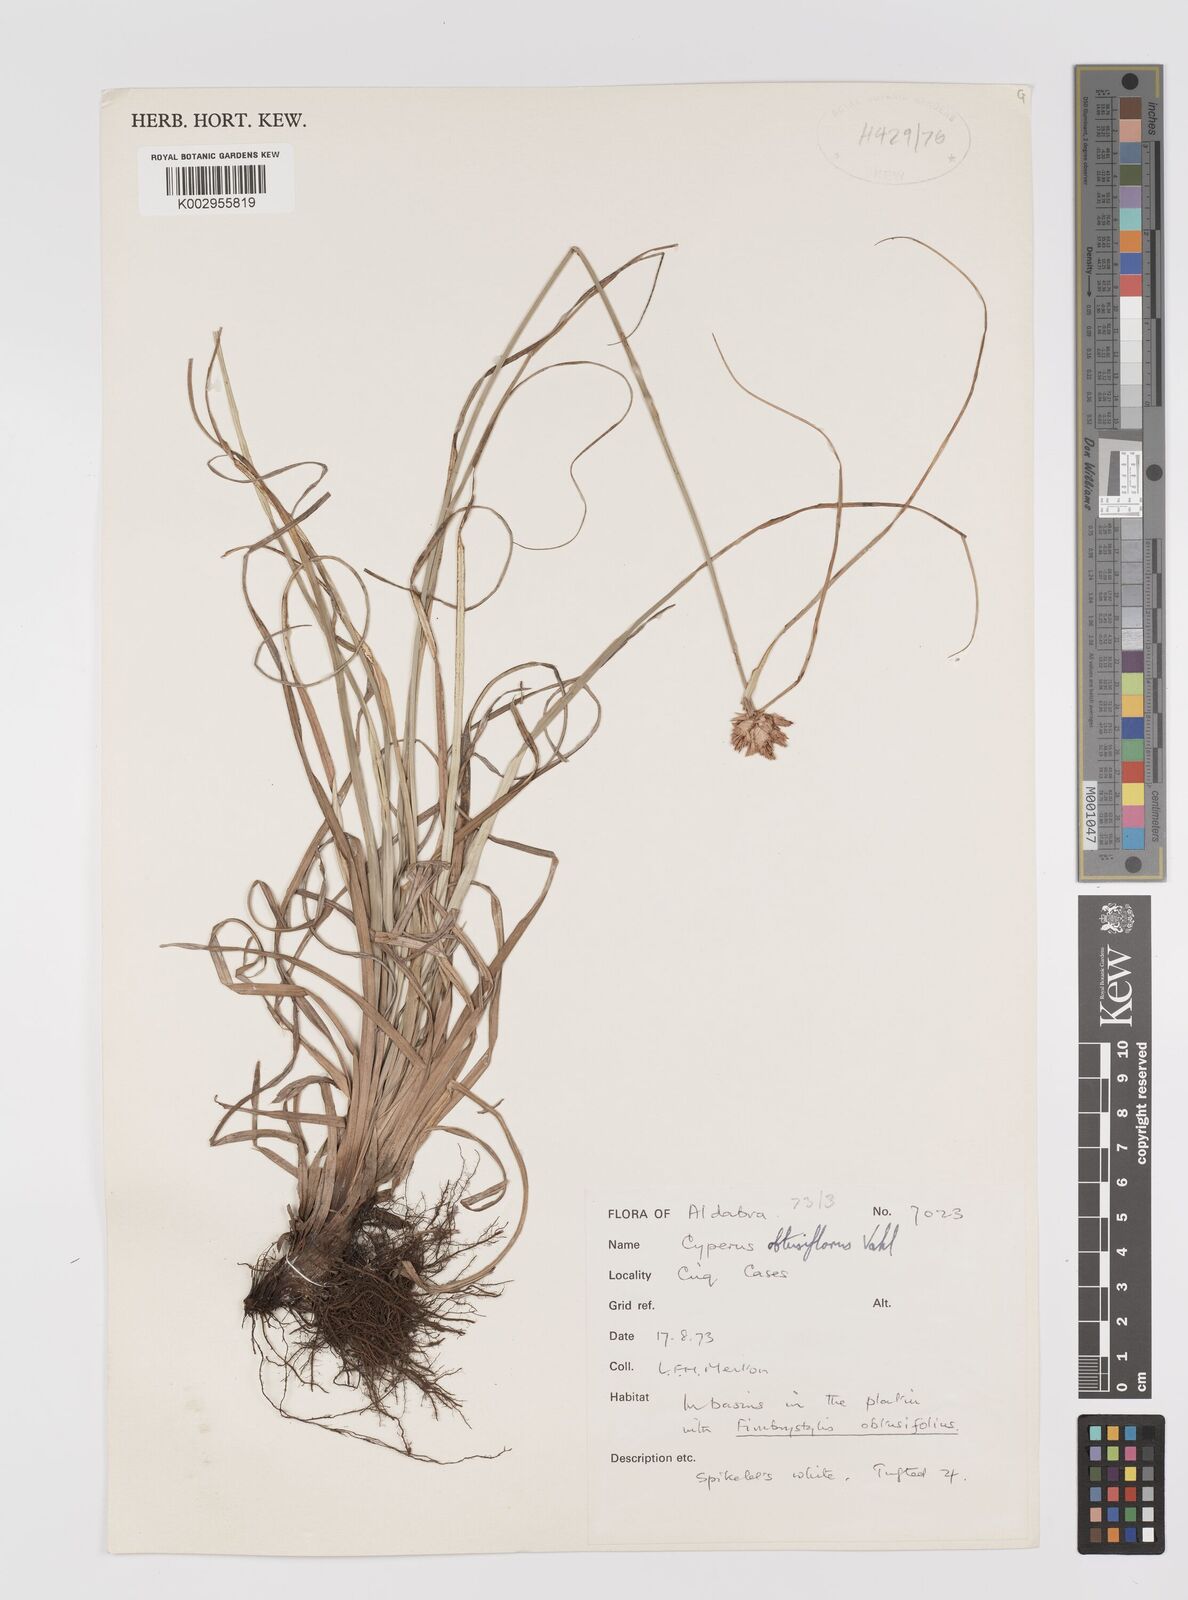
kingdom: Plantae
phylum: Tracheophyta
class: Liliopsida
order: Poales
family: Cyperaceae
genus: Cyperus
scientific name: Cyperus niveus
